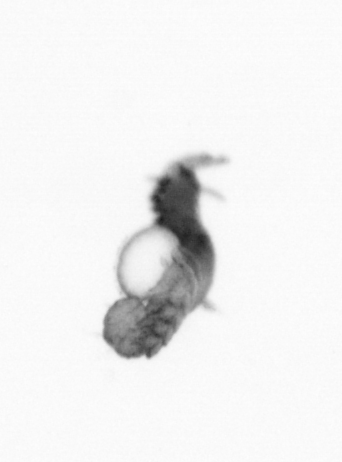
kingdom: Animalia
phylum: Annelida
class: Polychaeta
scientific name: Polychaeta
